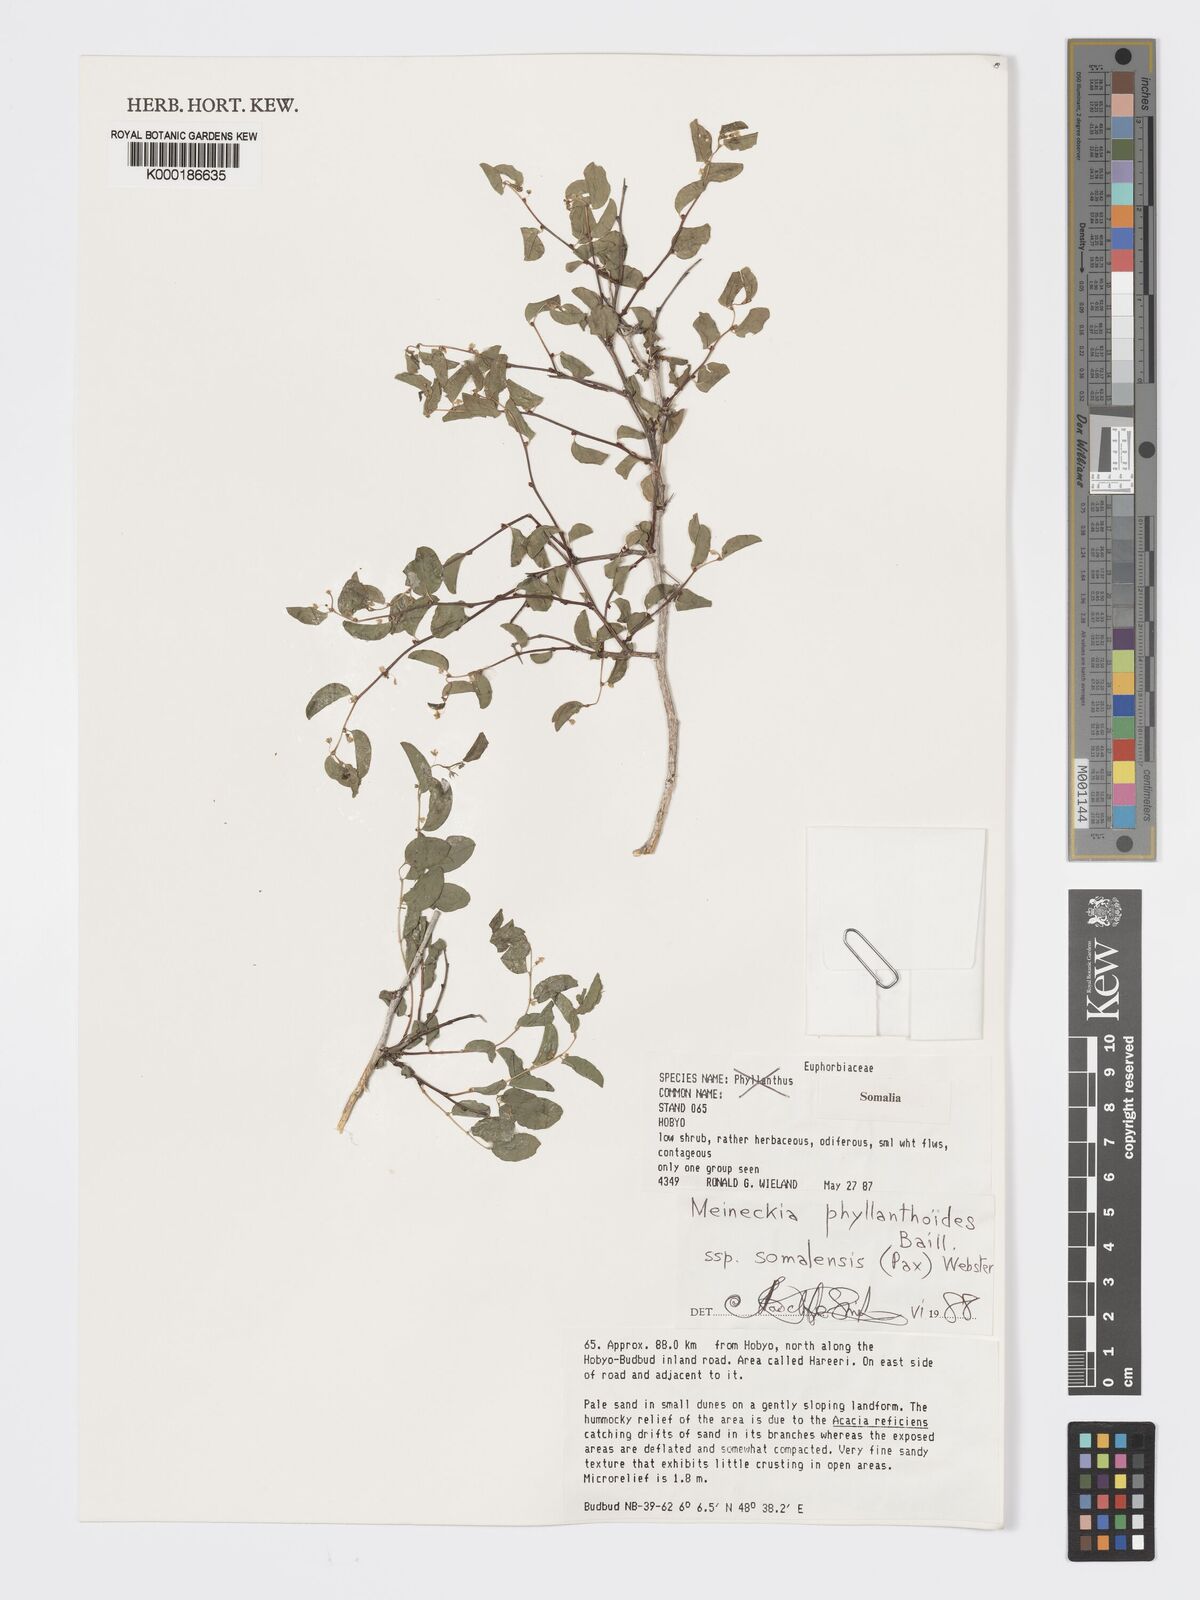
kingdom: Plantae
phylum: Tracheophyta
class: Magnoliopsida
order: Malpighiales
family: Phyllanthaceae
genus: Meineckia
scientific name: Meineckia phyllanthoides
